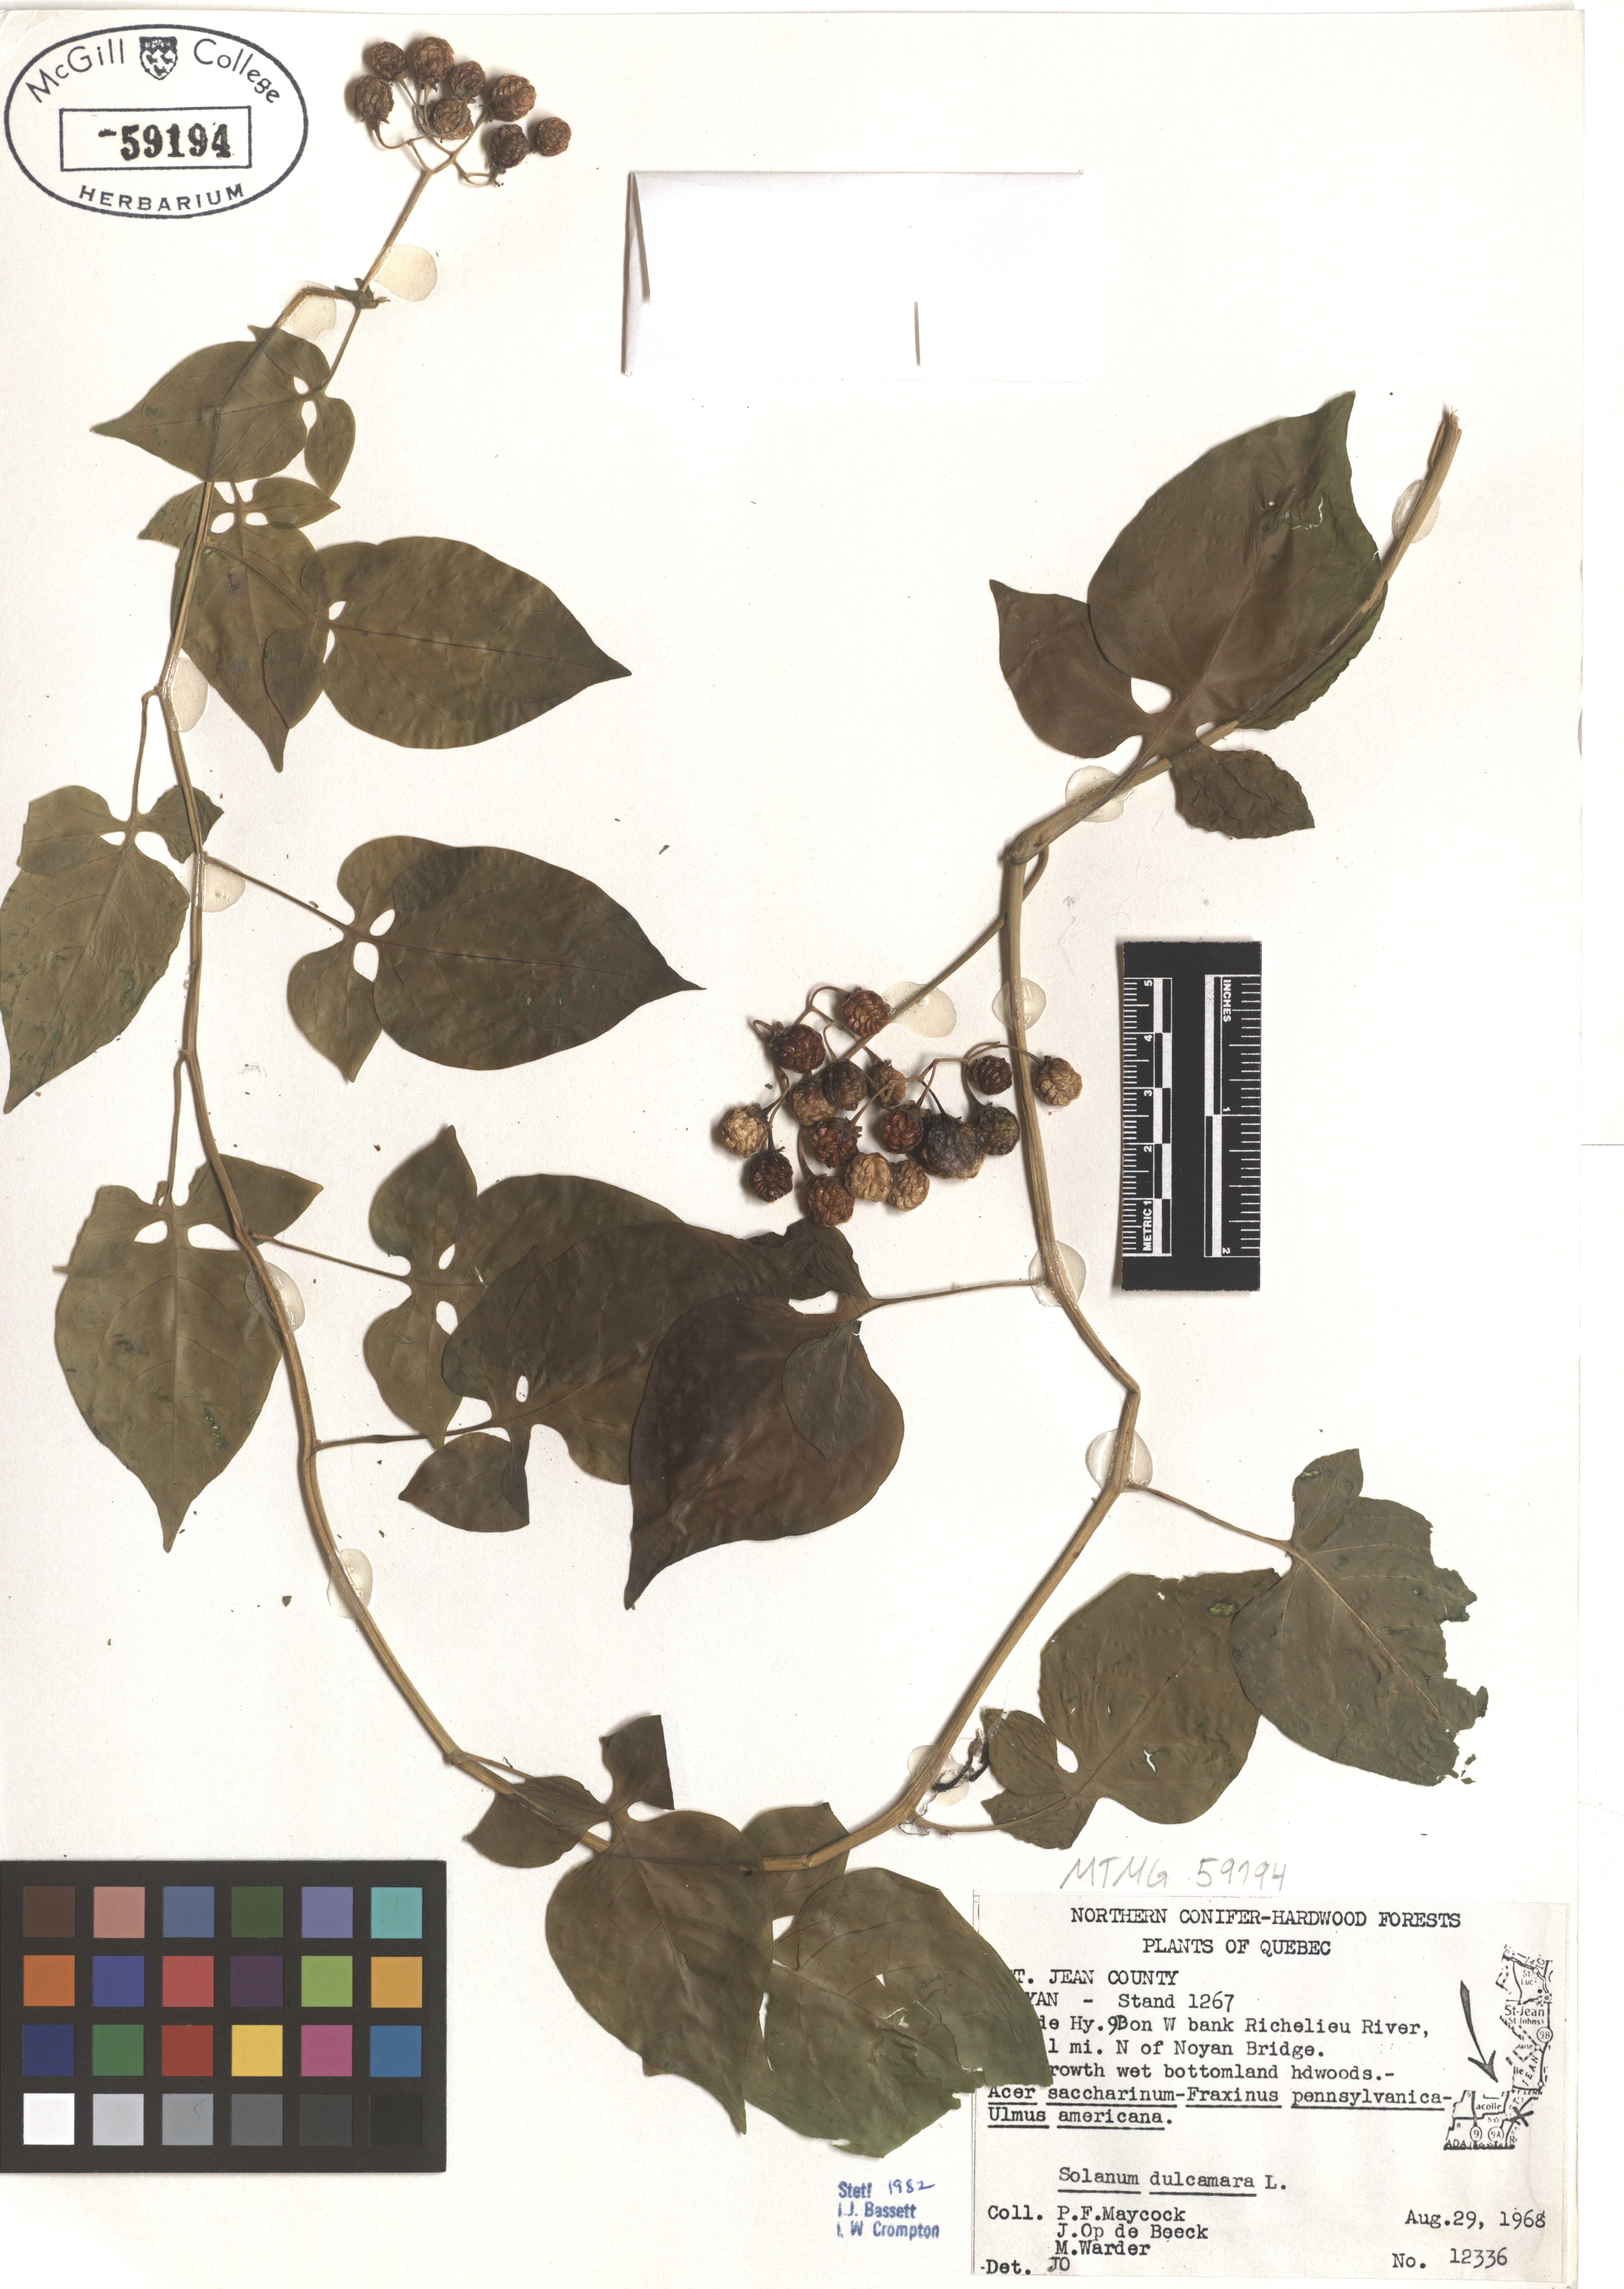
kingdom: Plantae
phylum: Tracheophyta
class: Magnoliopsida
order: Solanales
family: Solanaceae
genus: Solanum
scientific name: Solanum dulcamara
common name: Climbing nightshade
